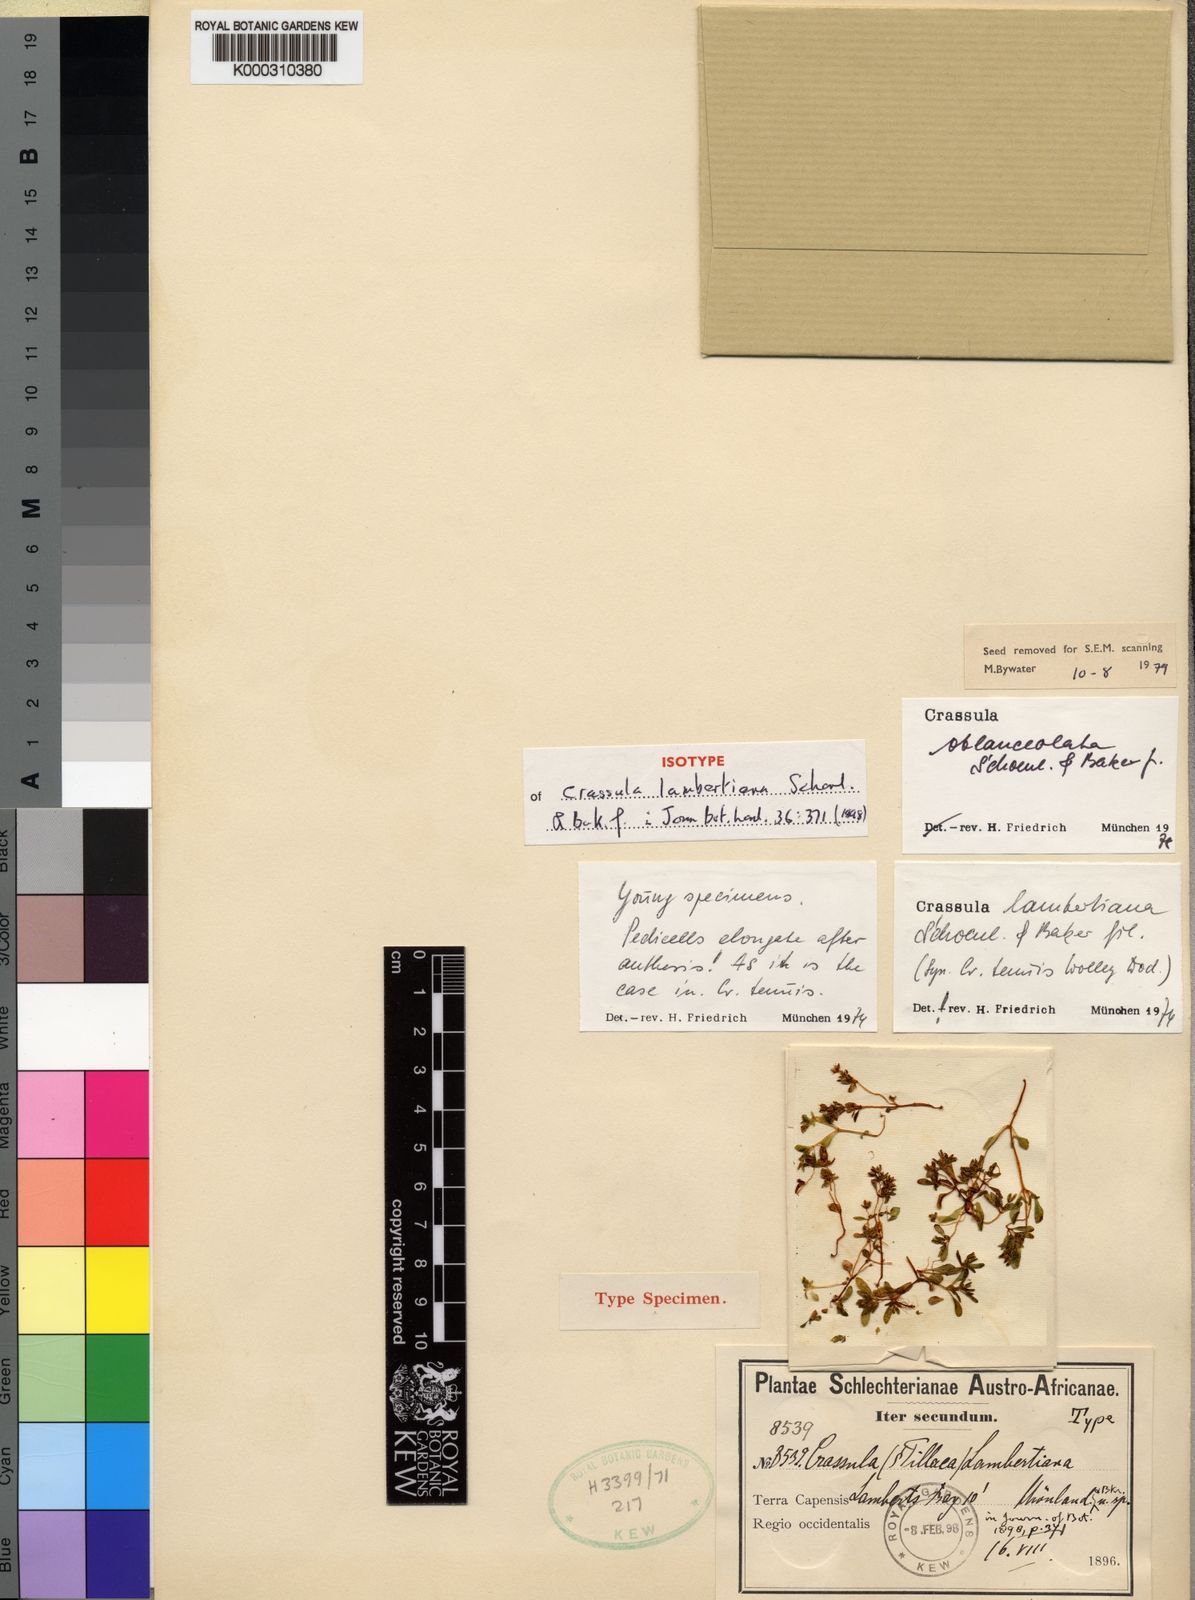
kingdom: Plantae
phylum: Tracheophyta
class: Magnoliopsida
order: Saxifragales
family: Crassulaceae
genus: Crassula
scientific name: Crassula
